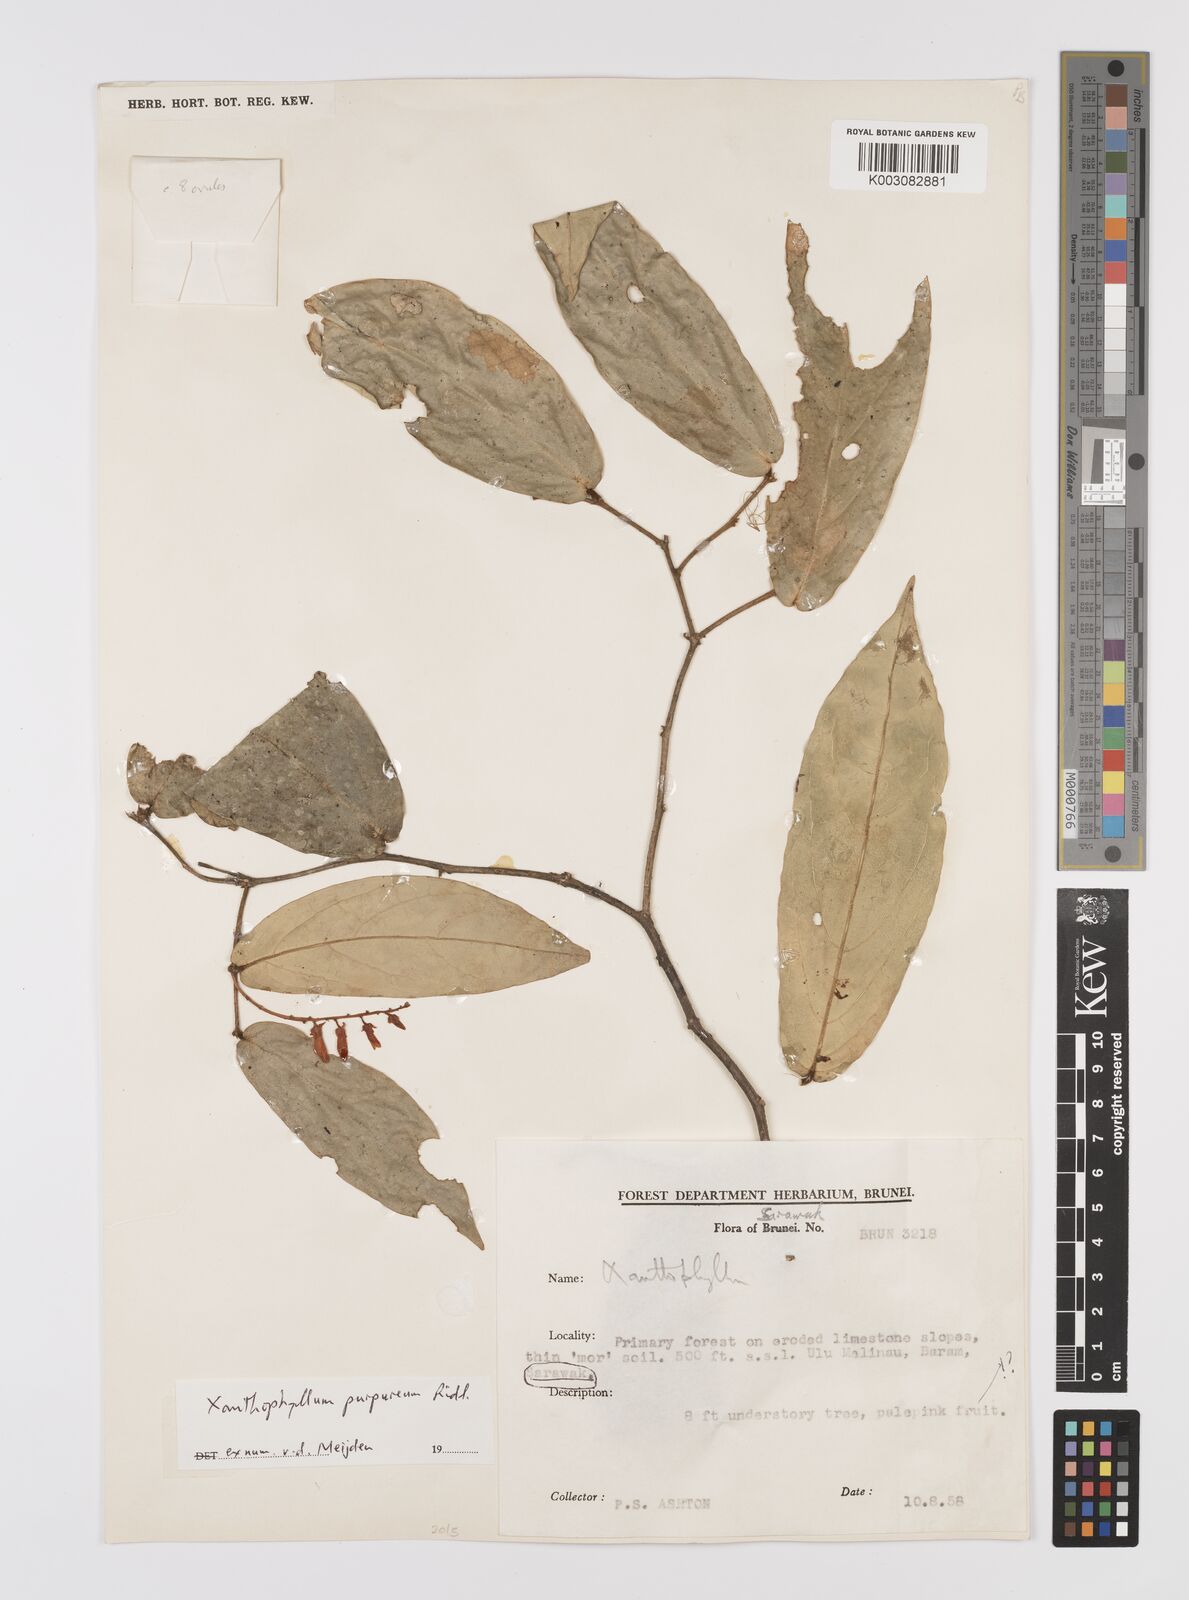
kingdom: Plantae
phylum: Tracheophyta
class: Magnoliopsida
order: Fabales
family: Polygalaceae
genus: Xanthophyllum
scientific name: Xanthophyllum purpureum
